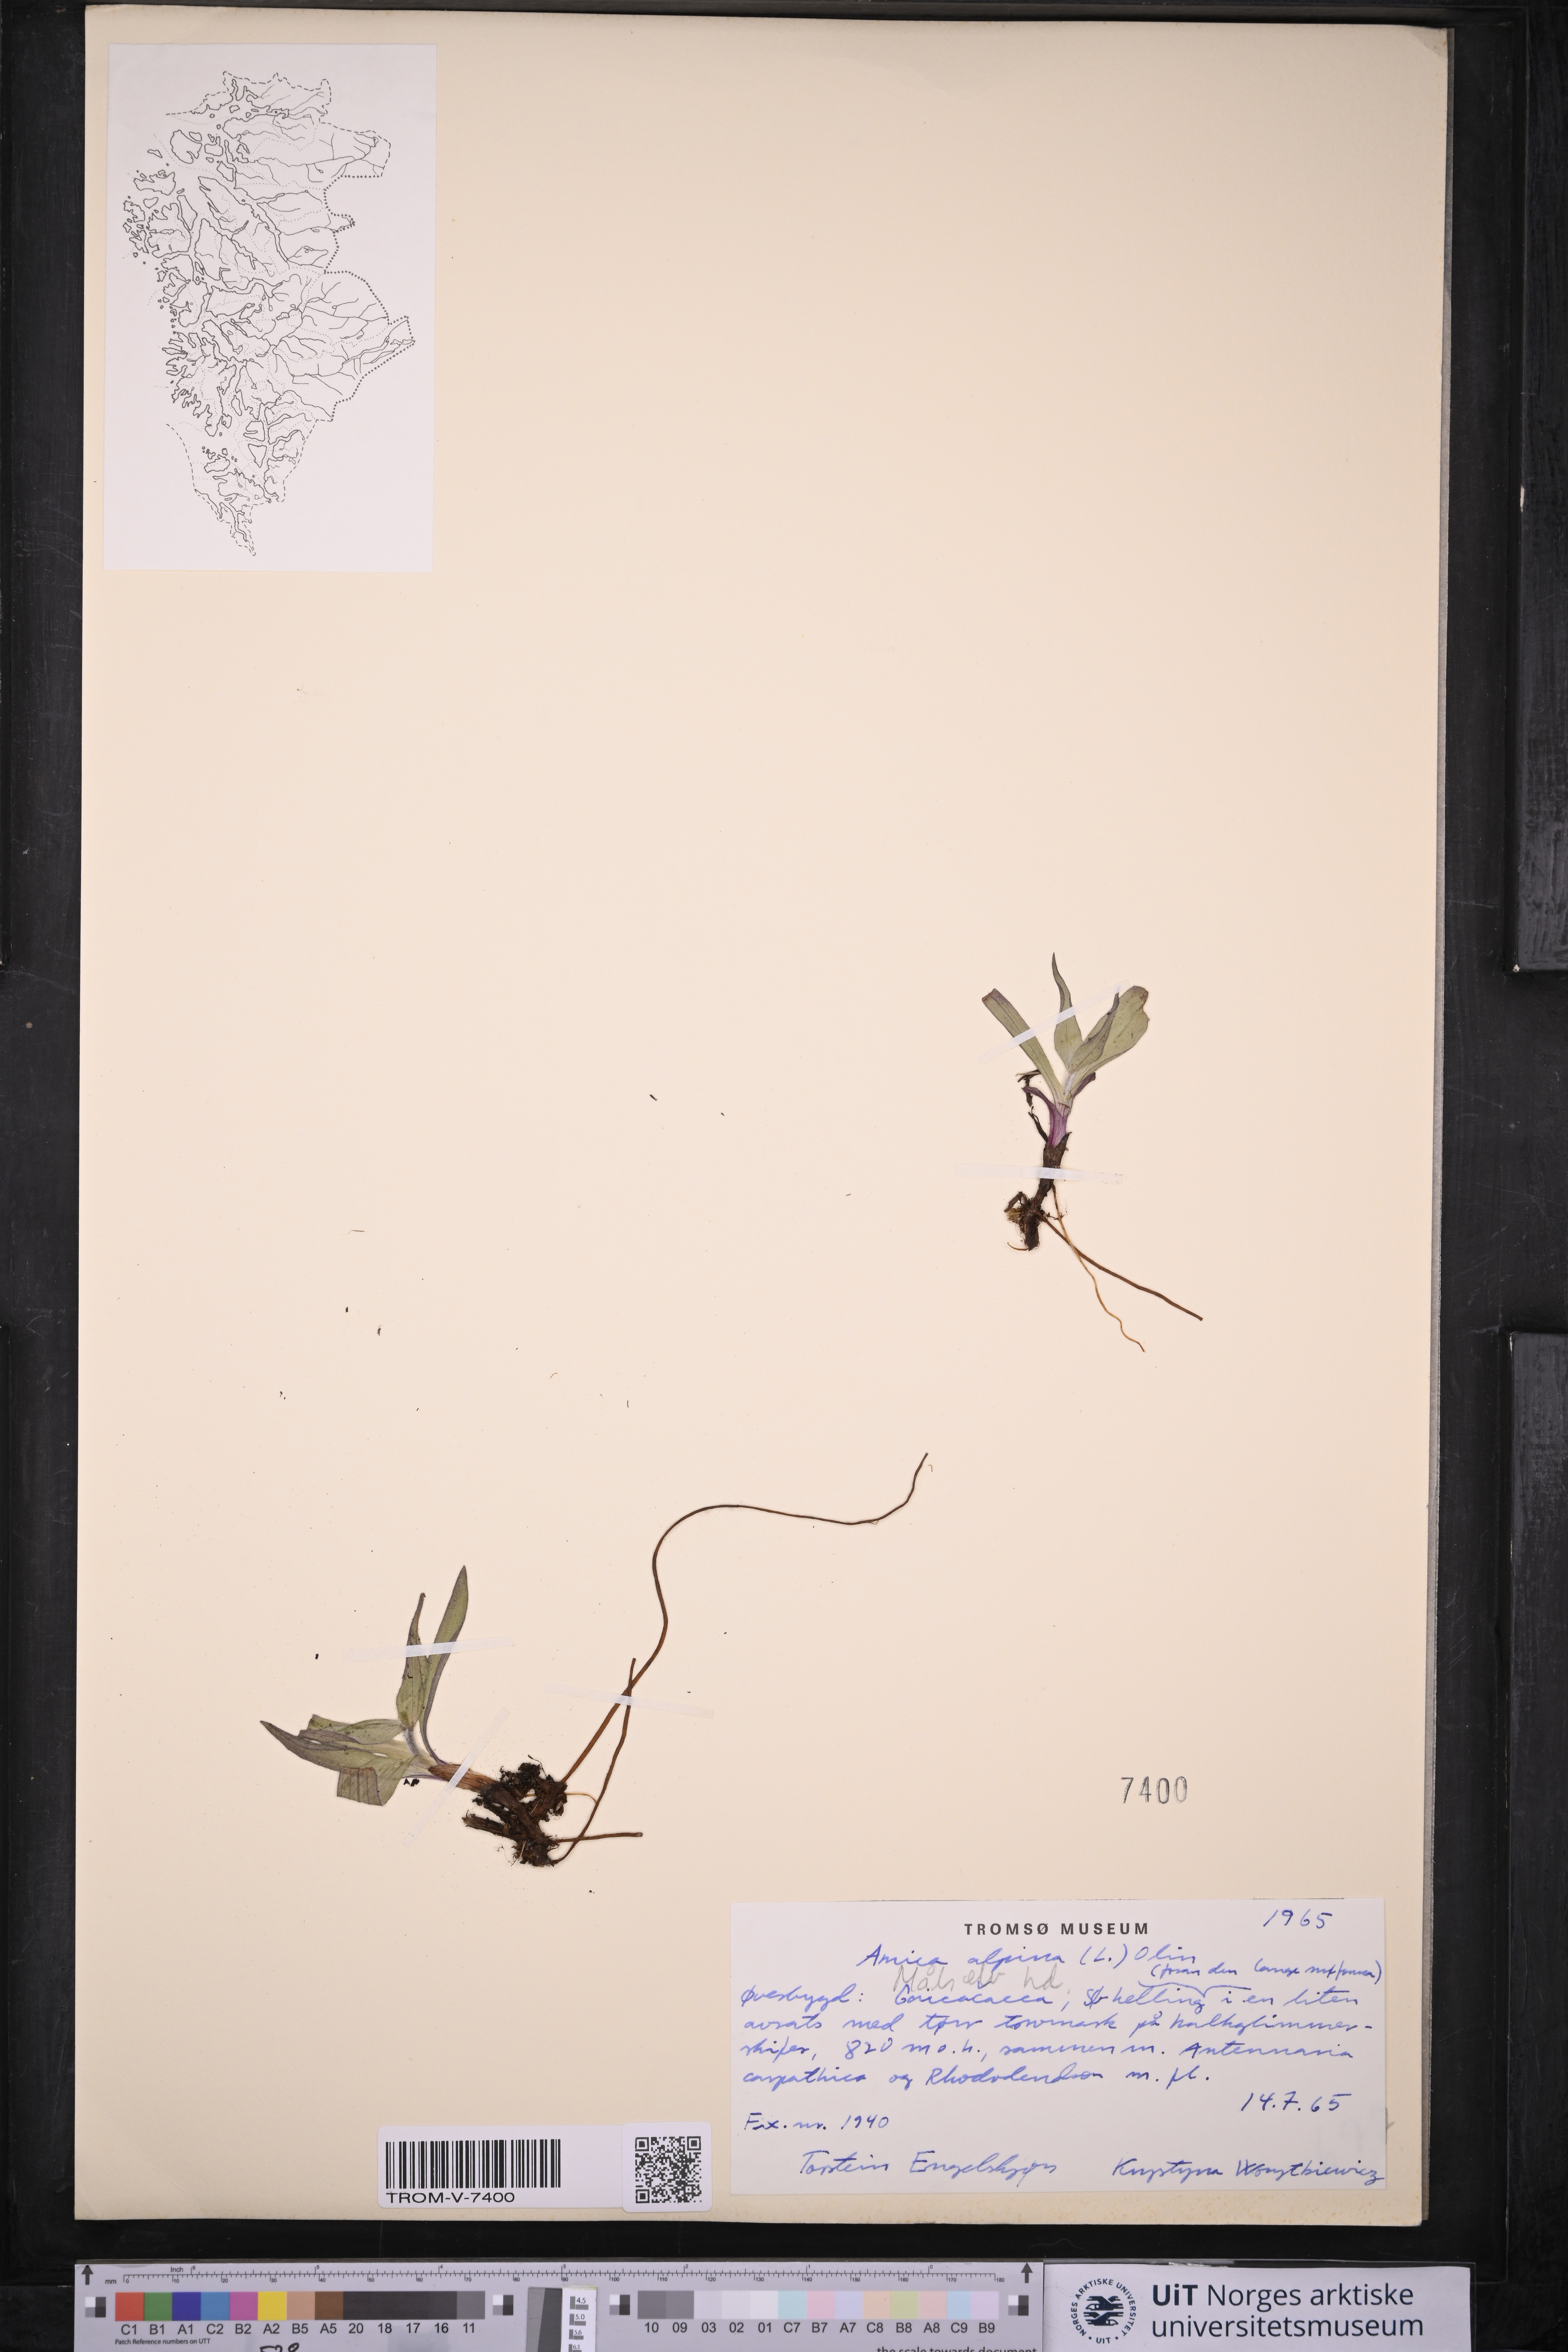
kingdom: Plantae
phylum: Tracheophyta
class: Magnoliopsida
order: Asterales
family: Asteraceae
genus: Arnica
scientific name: Arnica angustifolia
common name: Arctic arnica
